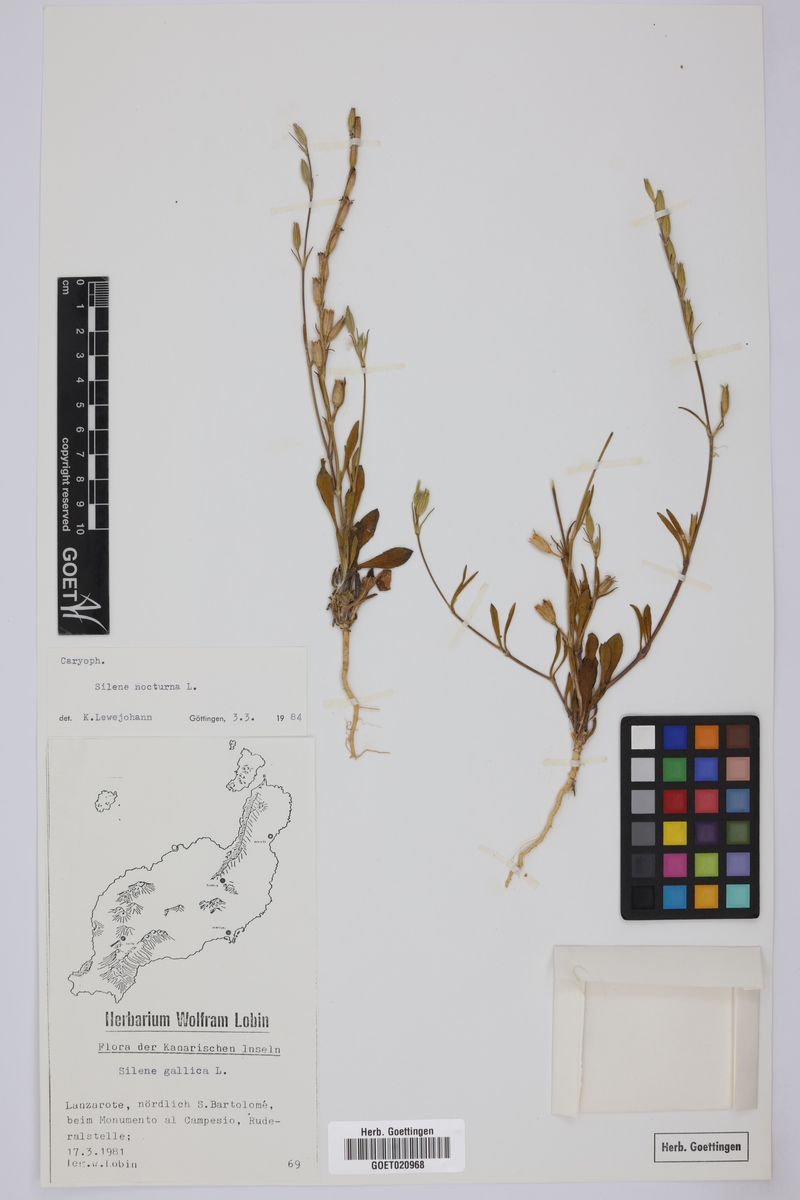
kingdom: Plantae
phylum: Tracheophyta
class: Magnoliopsida
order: Caryophyllales
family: Caryophyllaceae
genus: Silene
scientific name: Silene nocturna
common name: Mediterranean catchfly
